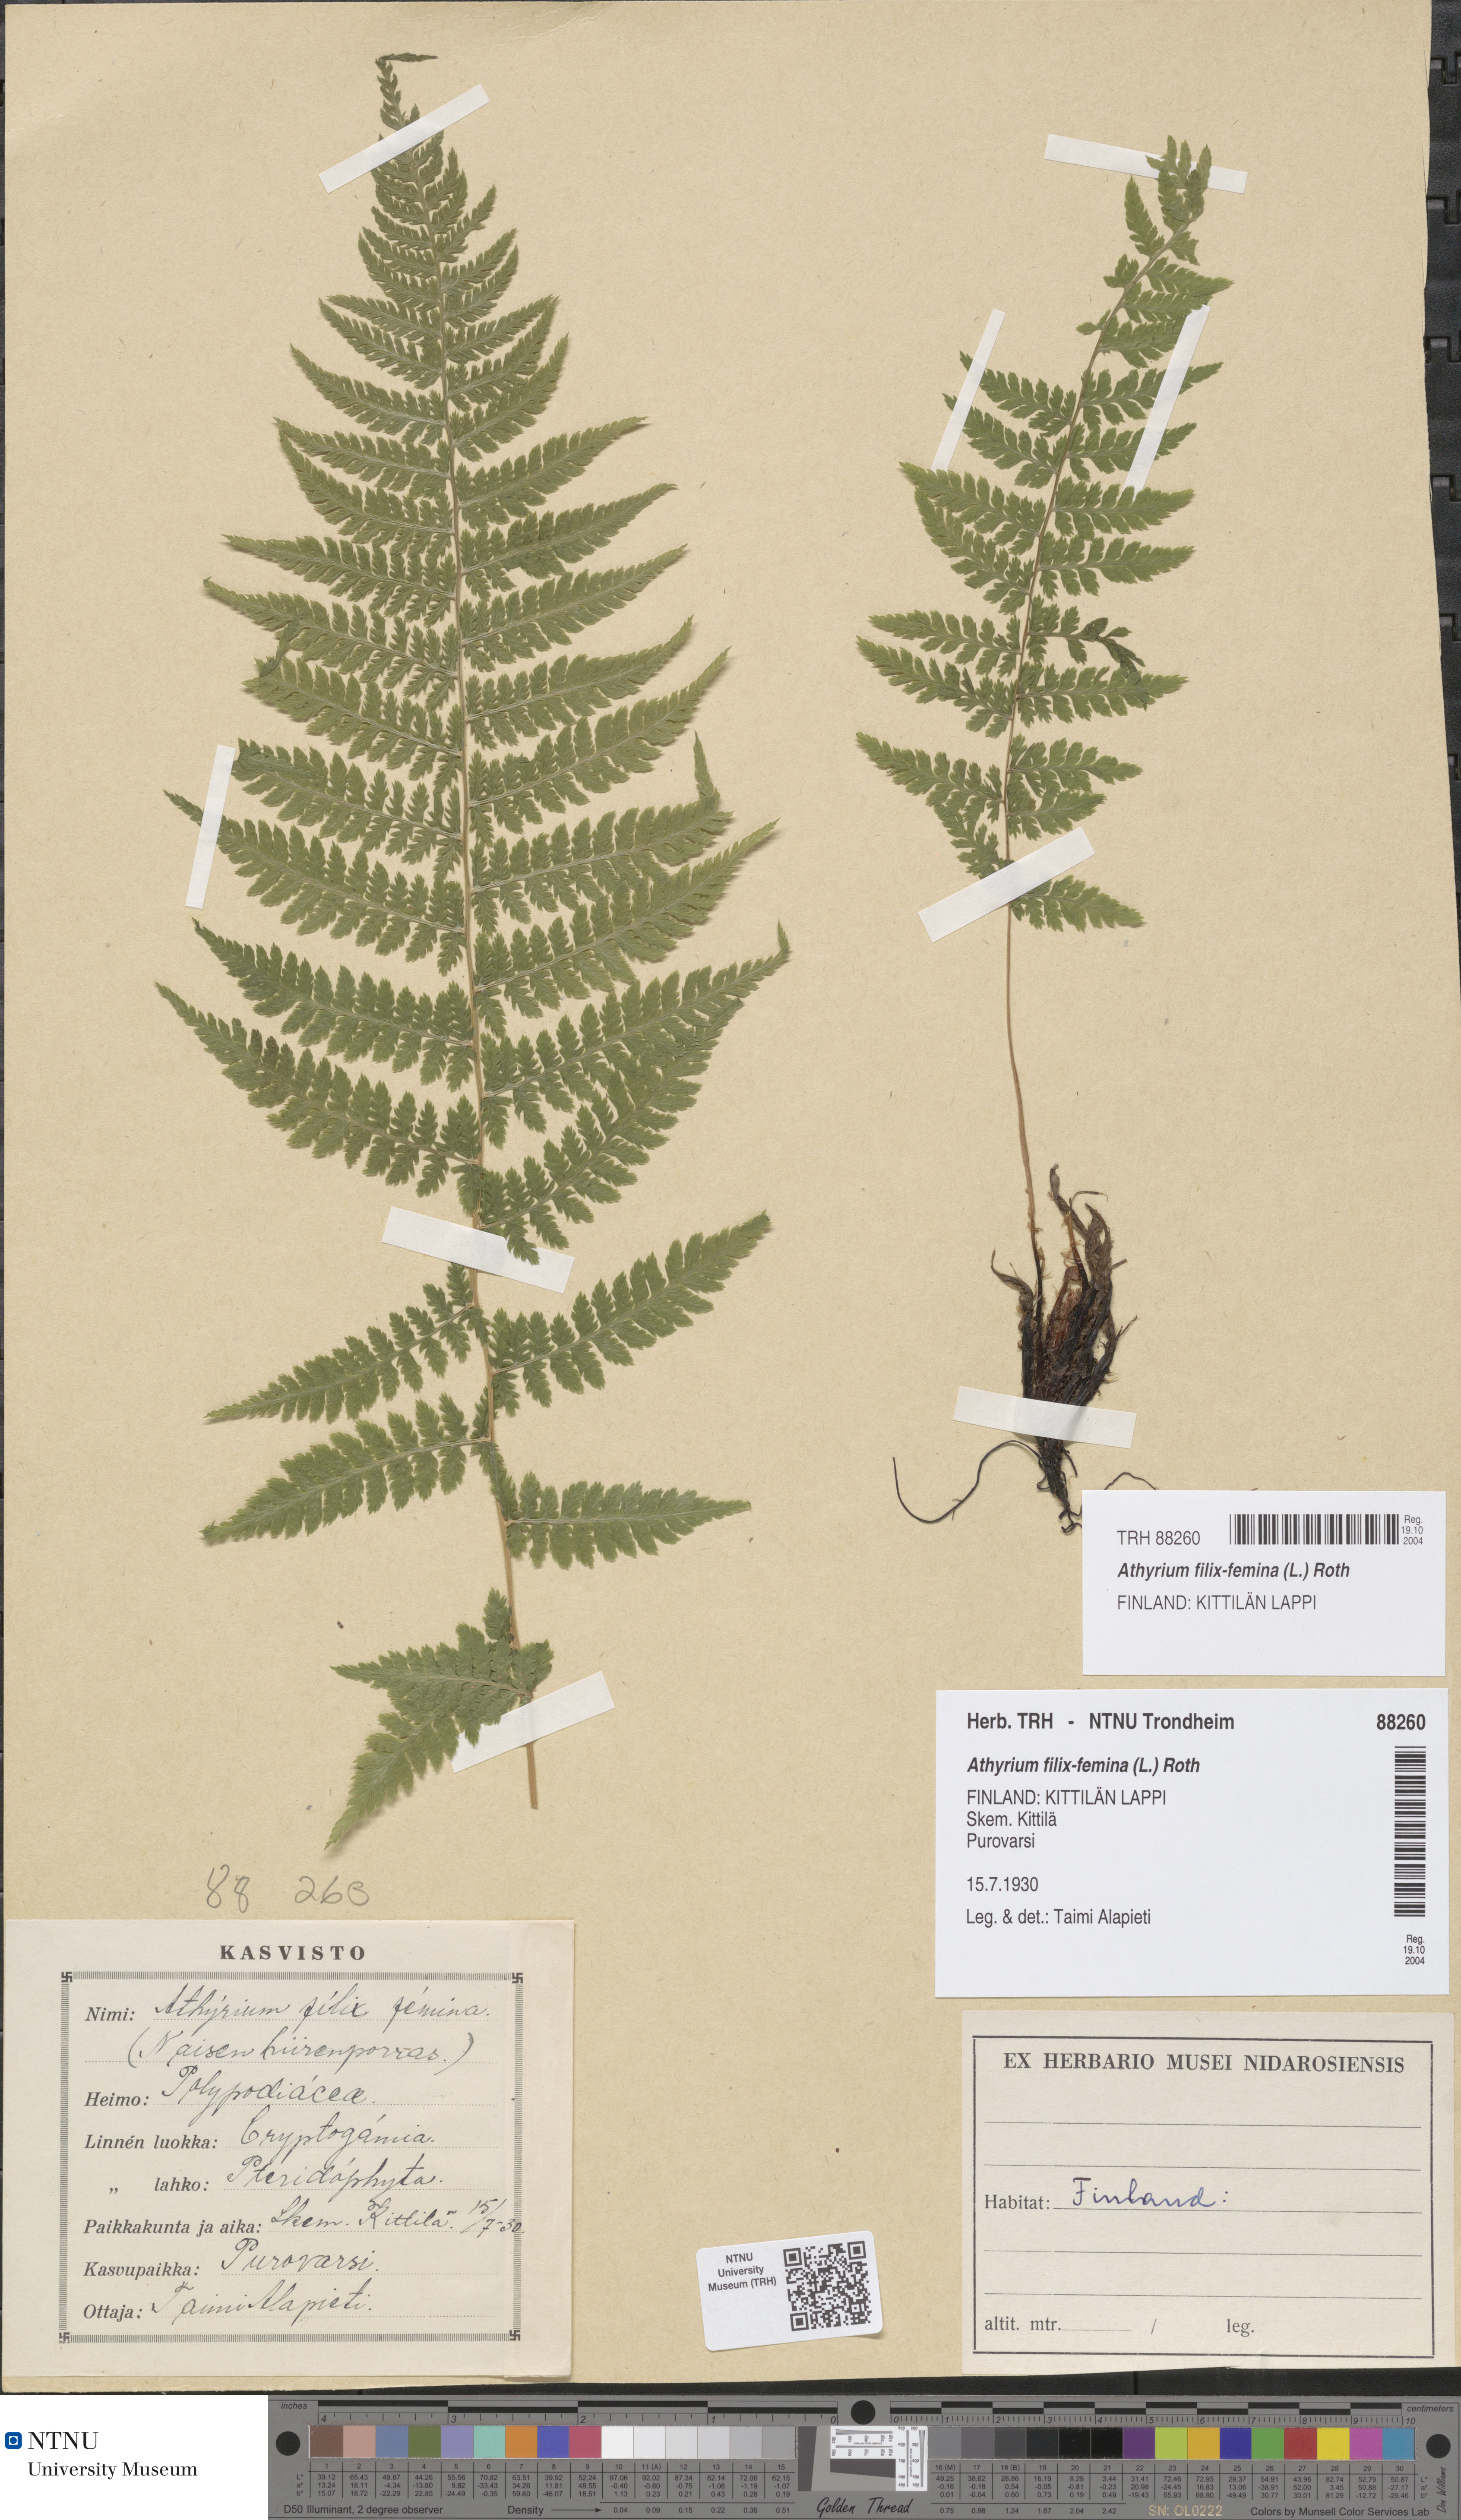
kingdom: Plantae
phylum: Tracheophyta
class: Polypodiopsida
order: Polypodiales
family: Athyriaceae
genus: Athyrium
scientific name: Athyrium filix-femina
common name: Lady fern
